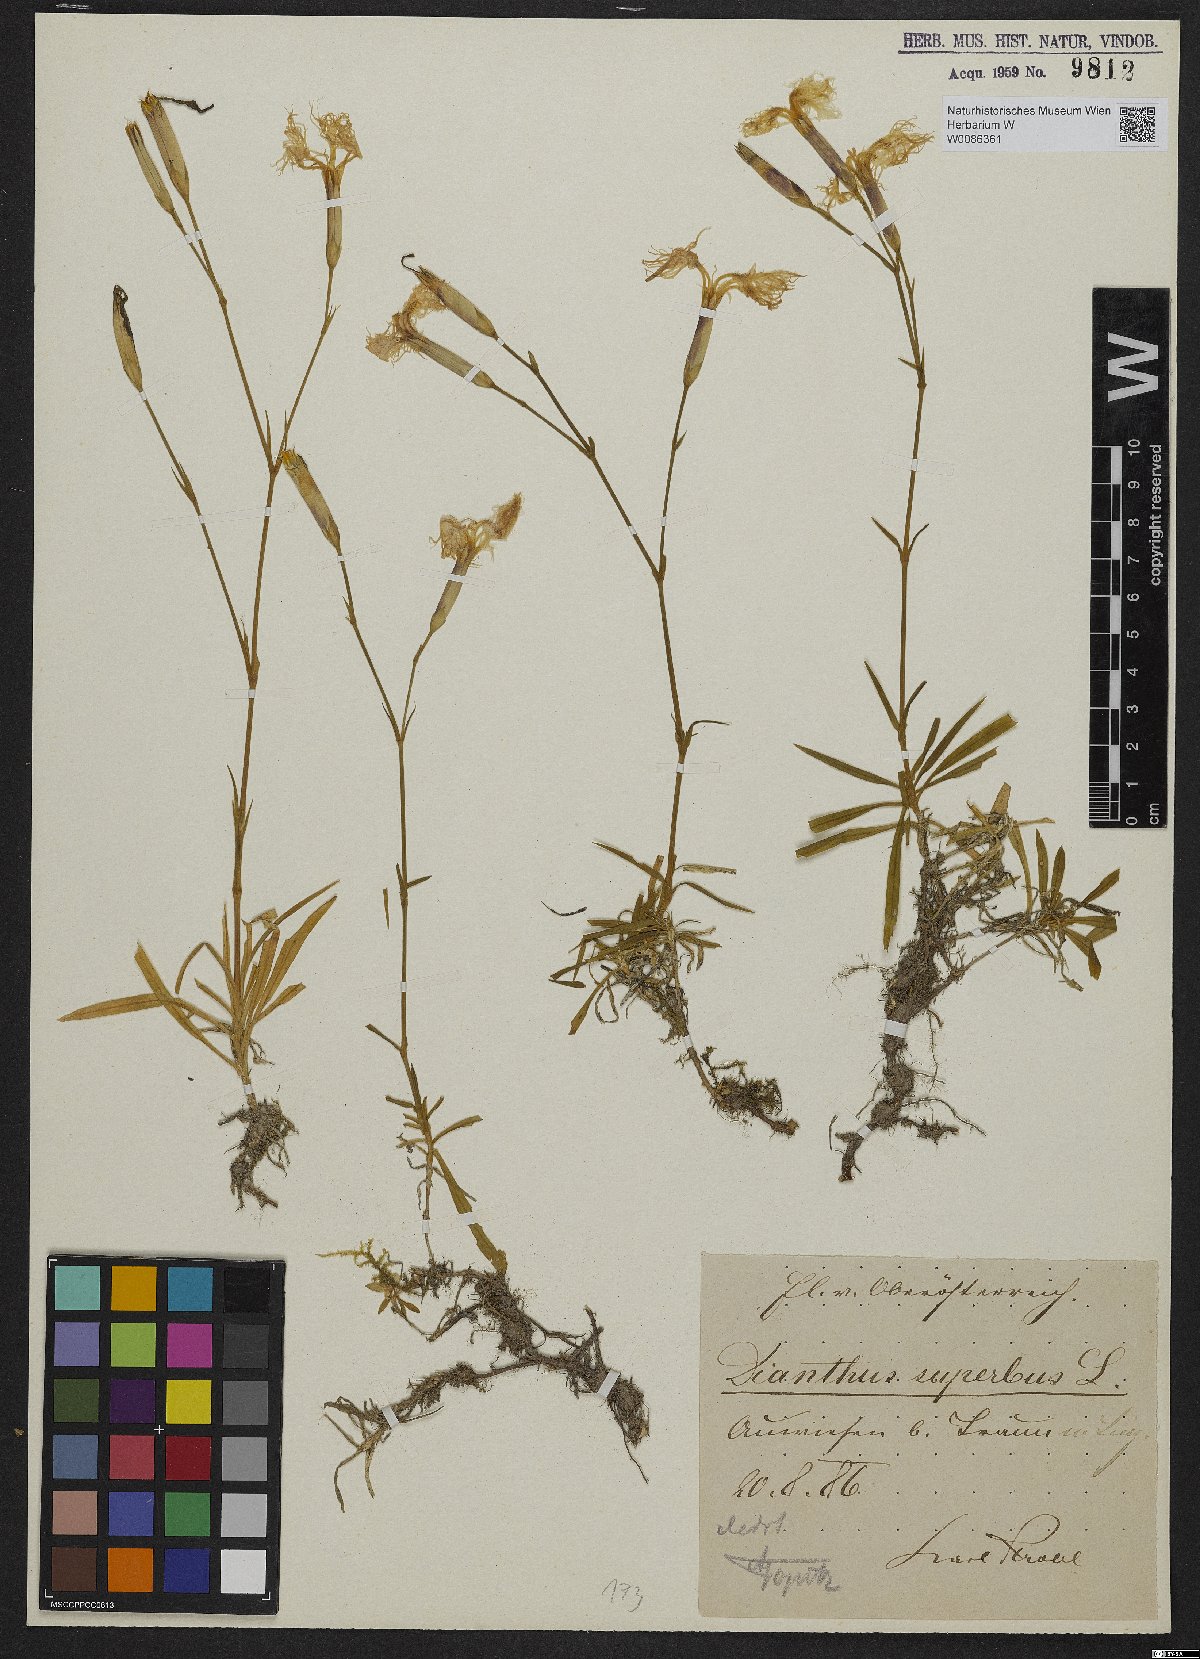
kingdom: Plantae
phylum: Tracheophyta
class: Magnoliopsida
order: Caryophyllales
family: Caryophyllaceae
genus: Dianthus
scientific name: Dianthus superbus
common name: Fringed pink
